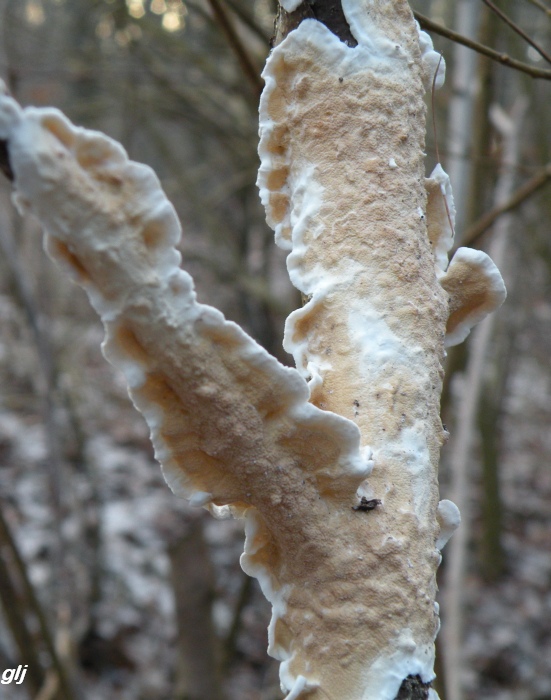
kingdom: Fungi
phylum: Basidiomycota
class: Agaricomycetes
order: Polyporales
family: Irpicaceae
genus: Byssomerulius
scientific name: Byssomerulius corium
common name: læder-åresvamp
